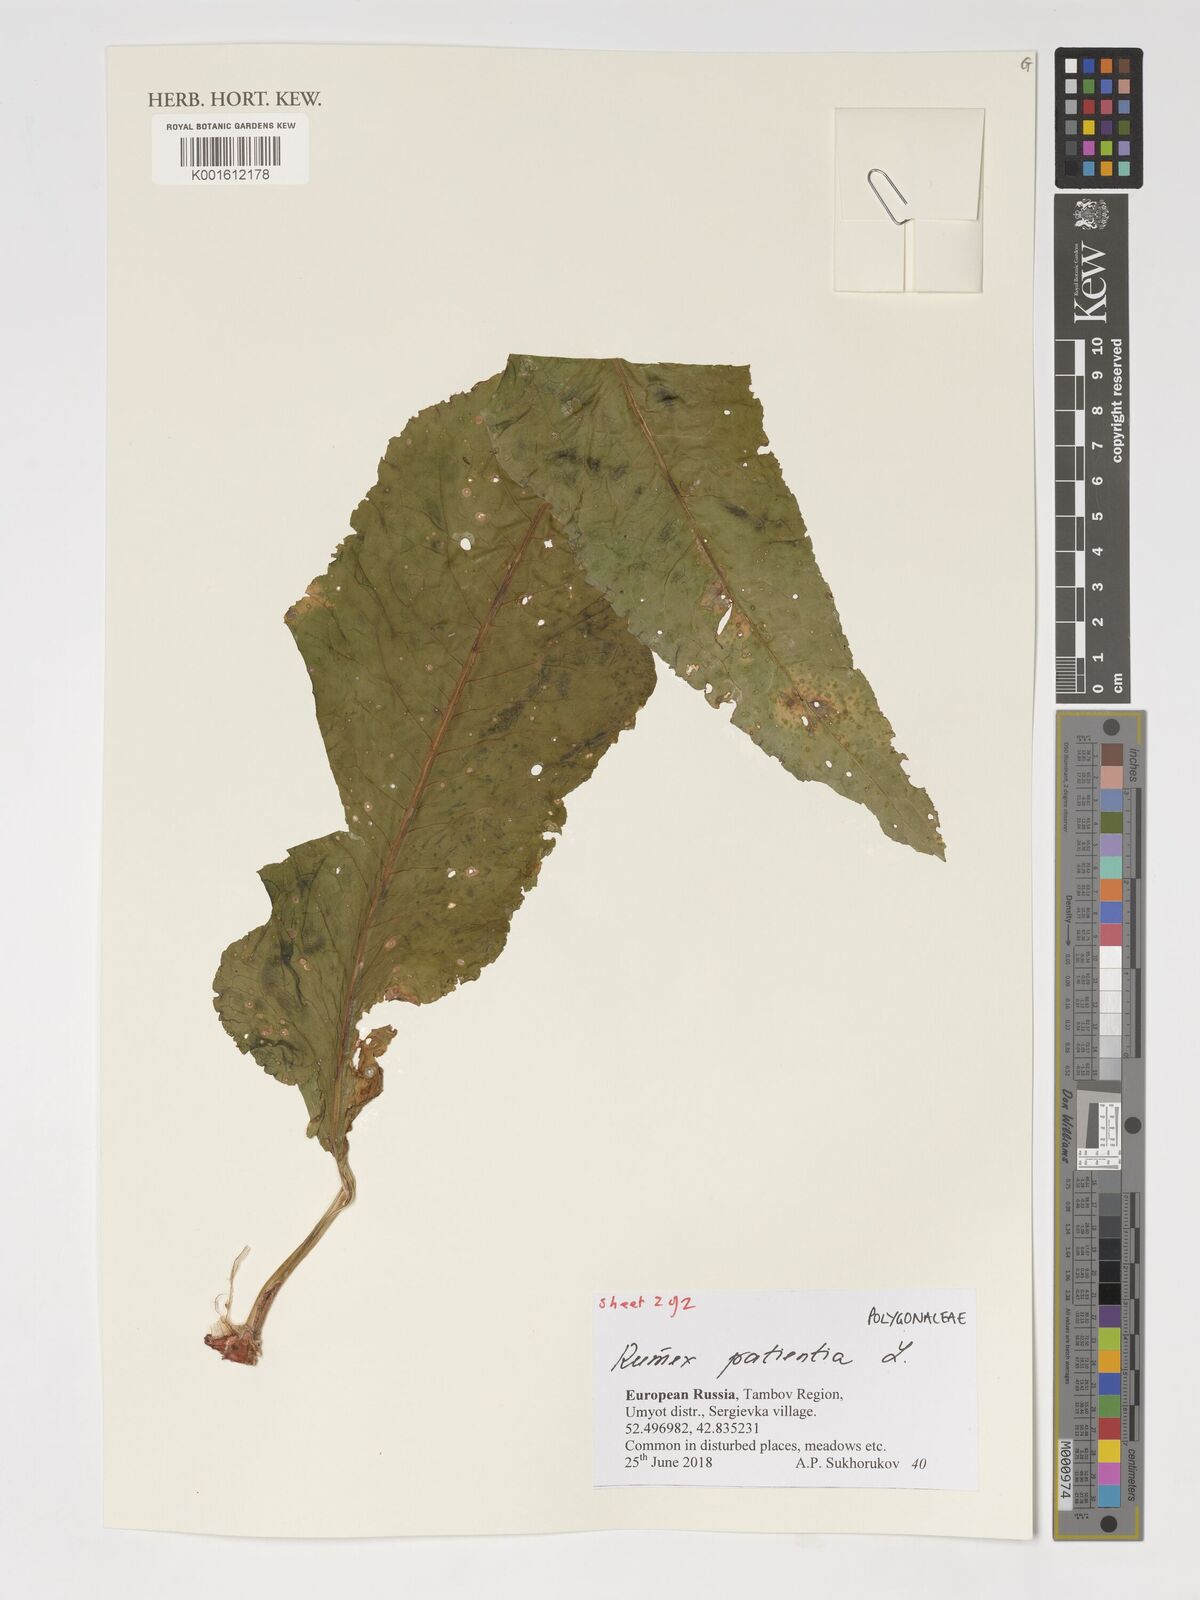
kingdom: Plantae
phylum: Tracheophyta
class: Magnoliopsida
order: Caryophyllales
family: Polygonaceae
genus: Rumex
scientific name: Rumex patientia
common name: Patience dock
